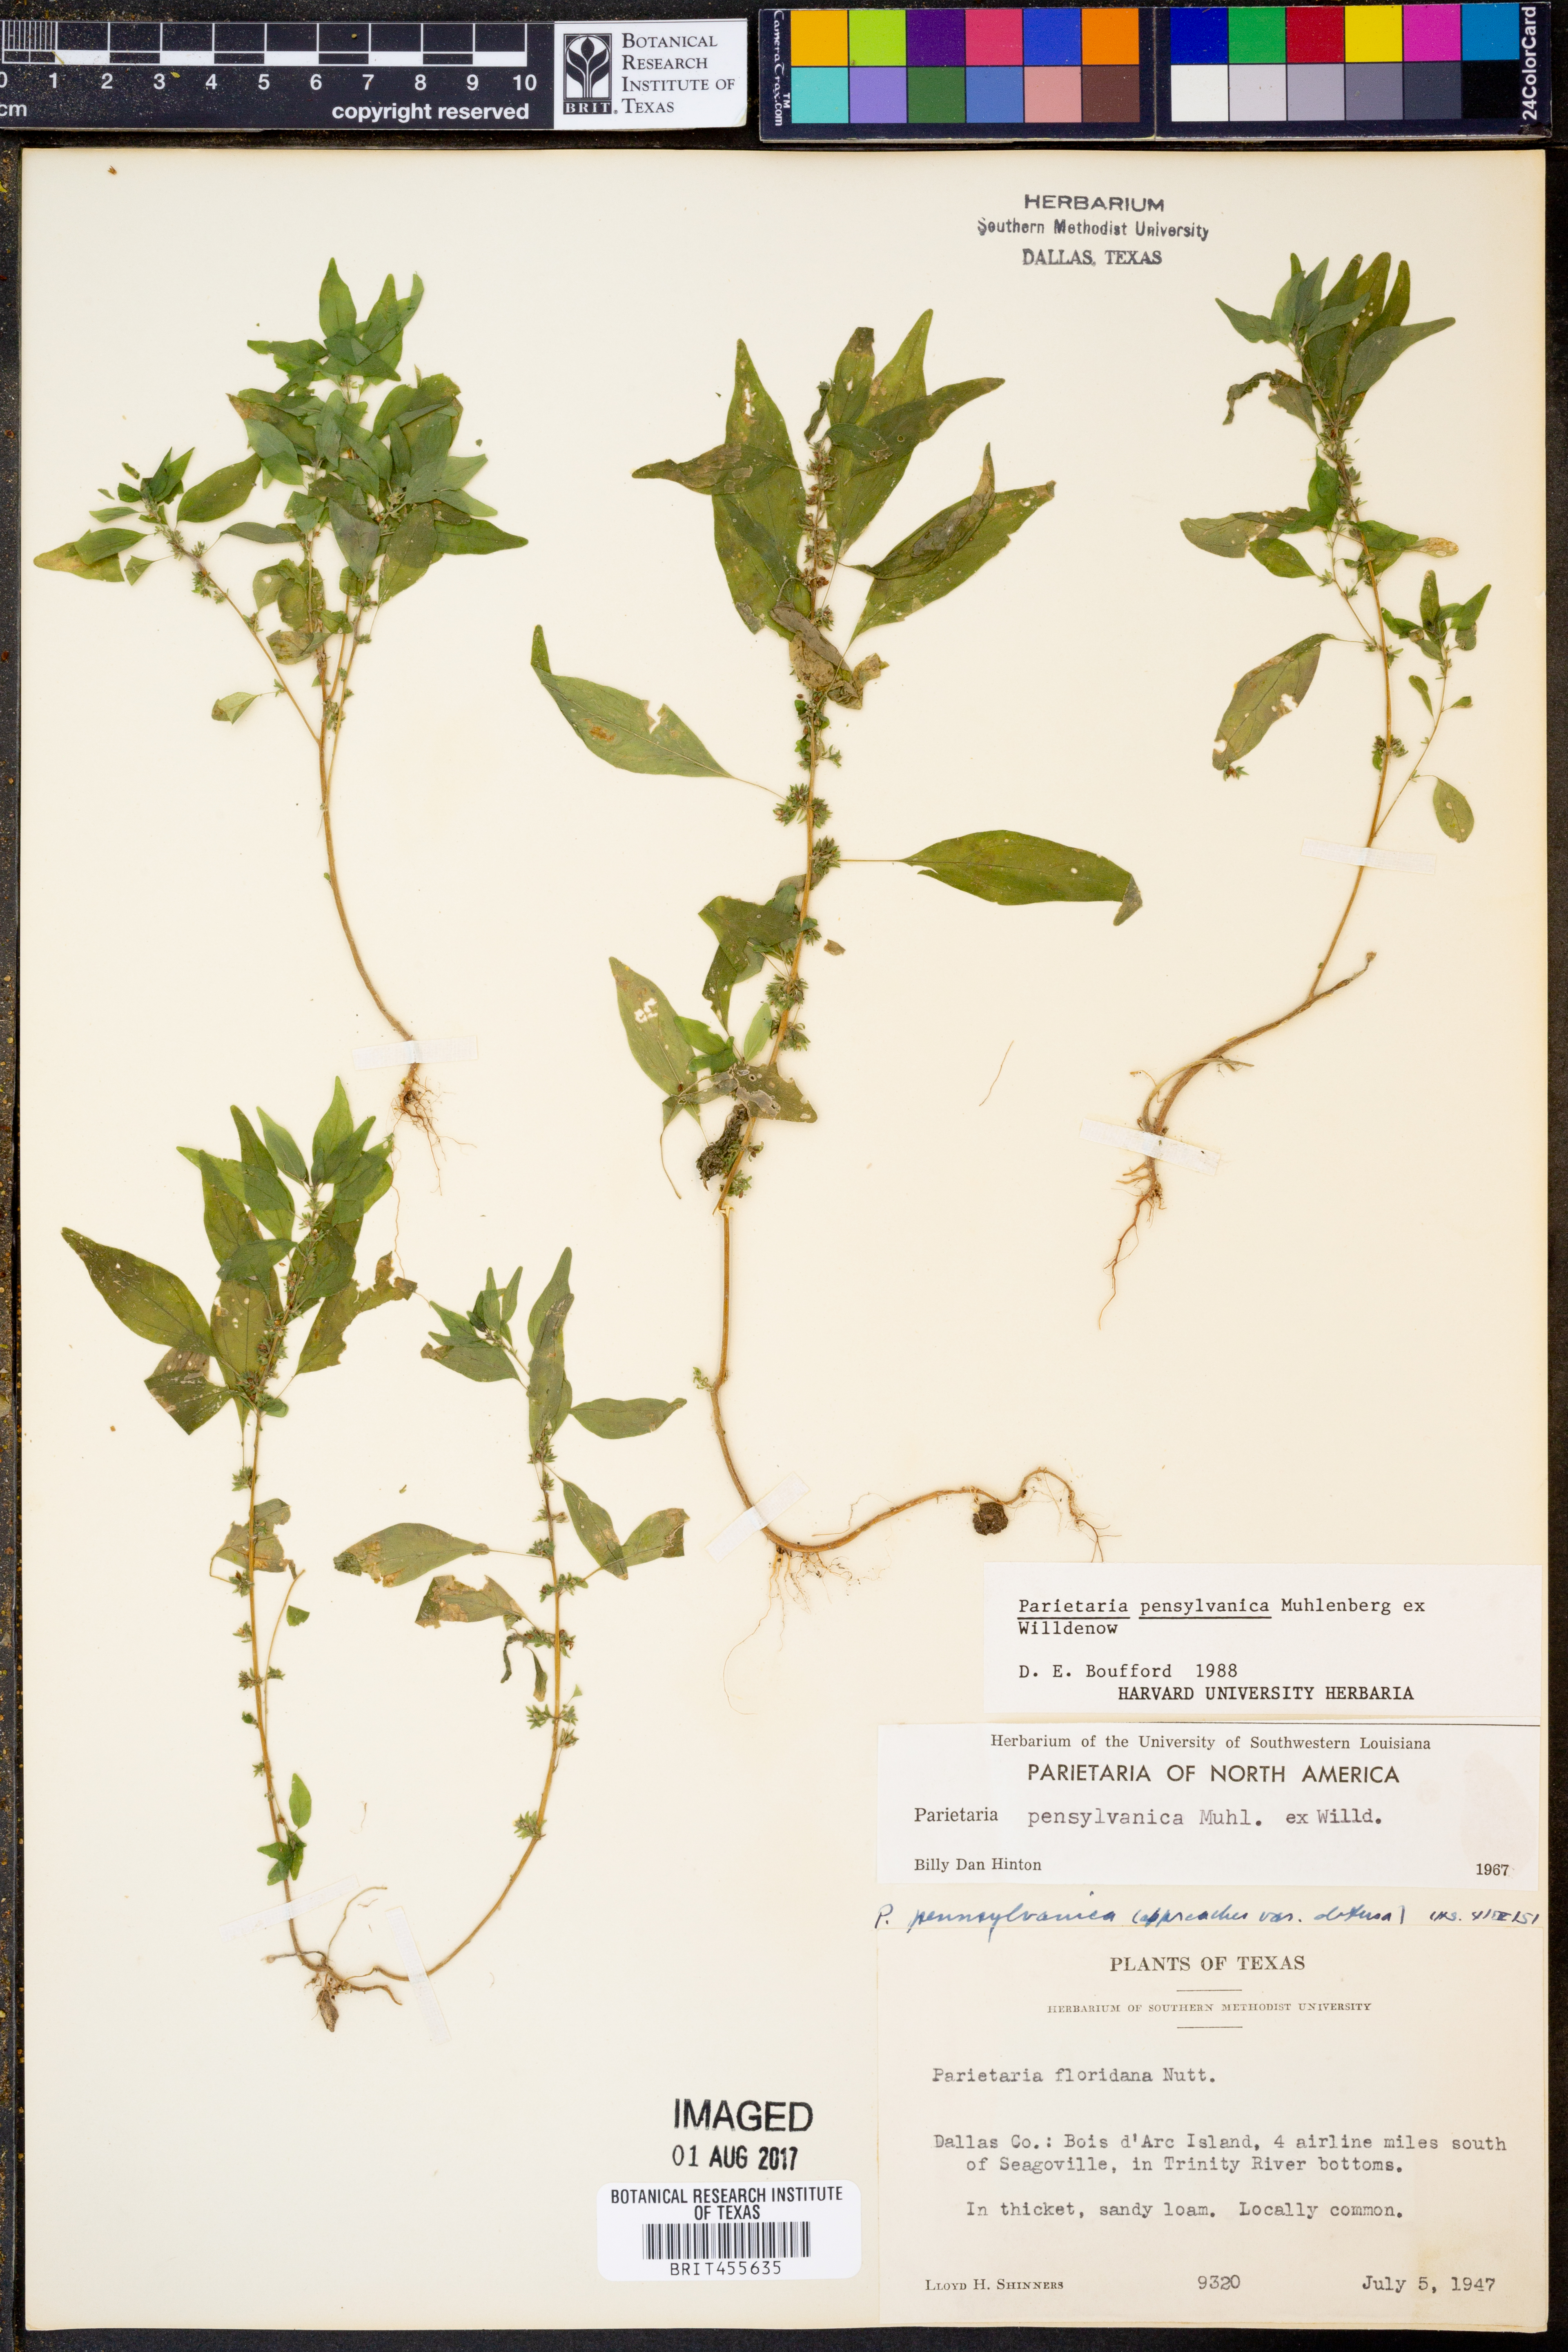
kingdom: Plantae
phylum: Tracheophyta
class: Magnoliopsida
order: Rosales
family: Urticaceae
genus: Parietaria
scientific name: Parietaria pensylvanica
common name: Pennsylvania pellitory
